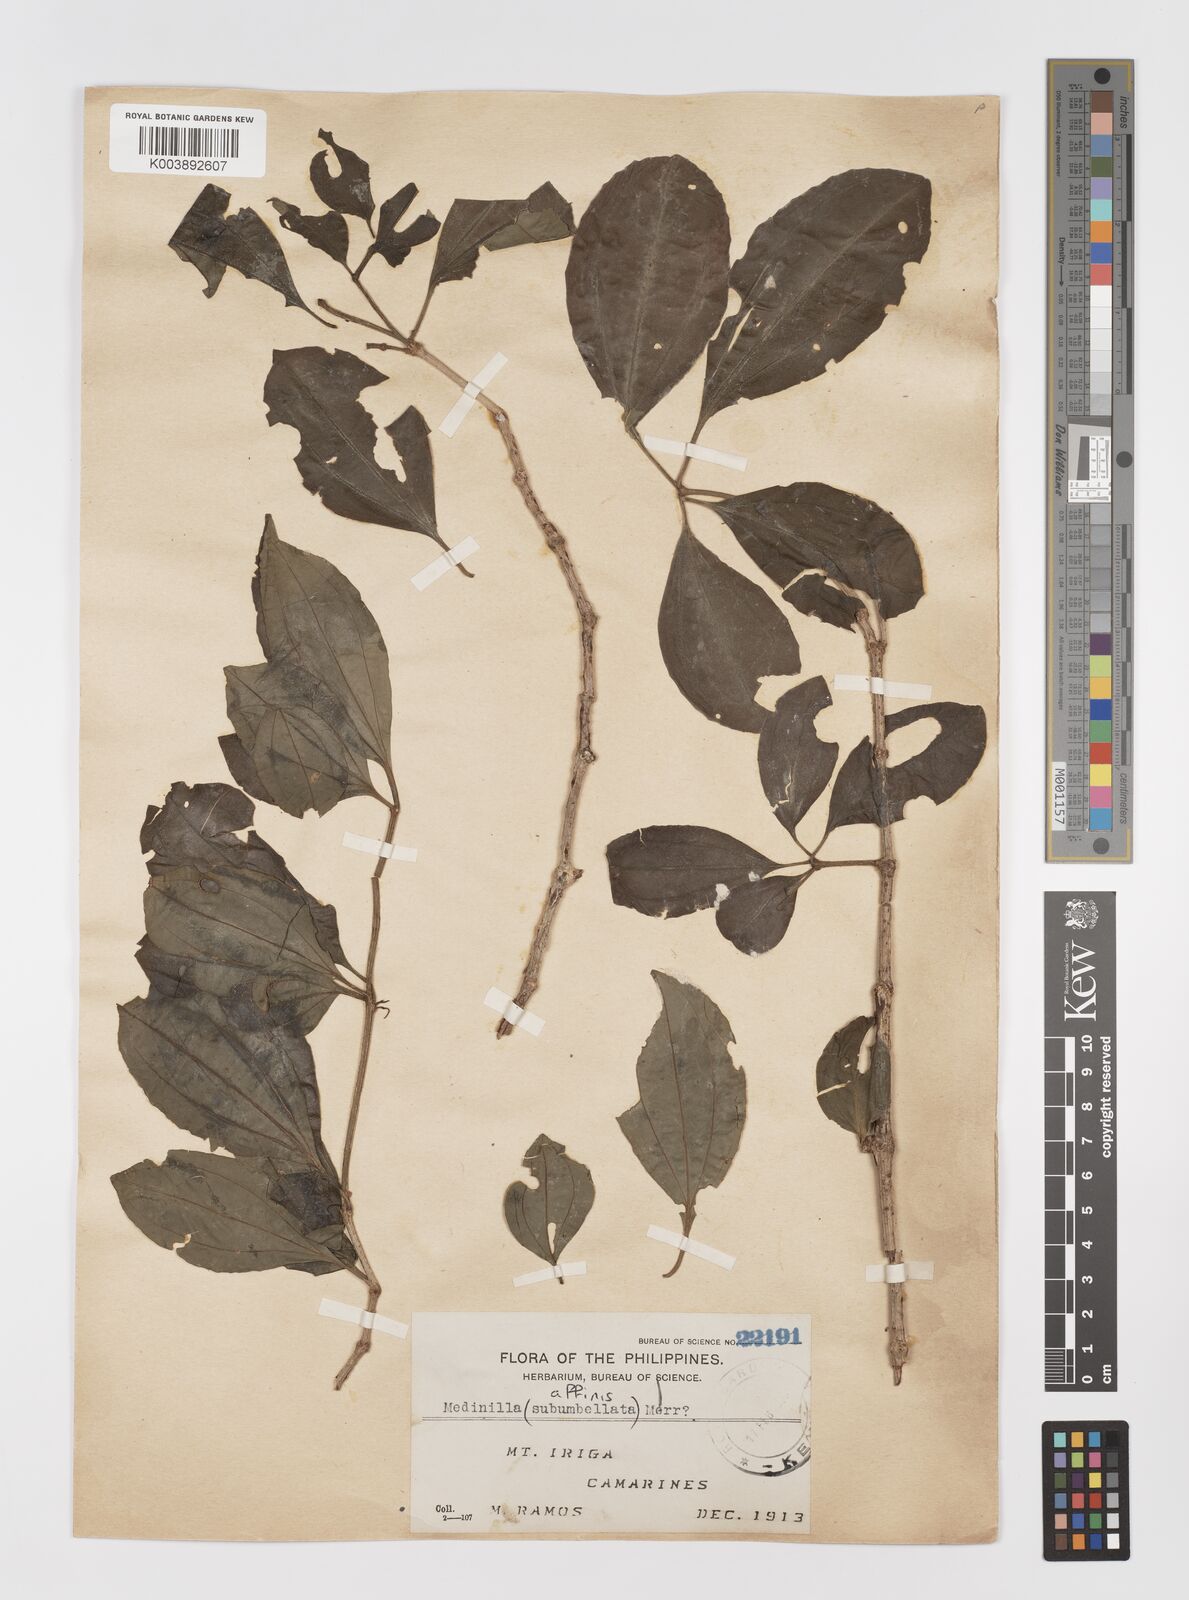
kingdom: Plantae
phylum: Tracheophyta
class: Magnoliopsida
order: Myrtales
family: Melastomataceae
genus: Medinilla
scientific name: Medinilla quadrifolia
